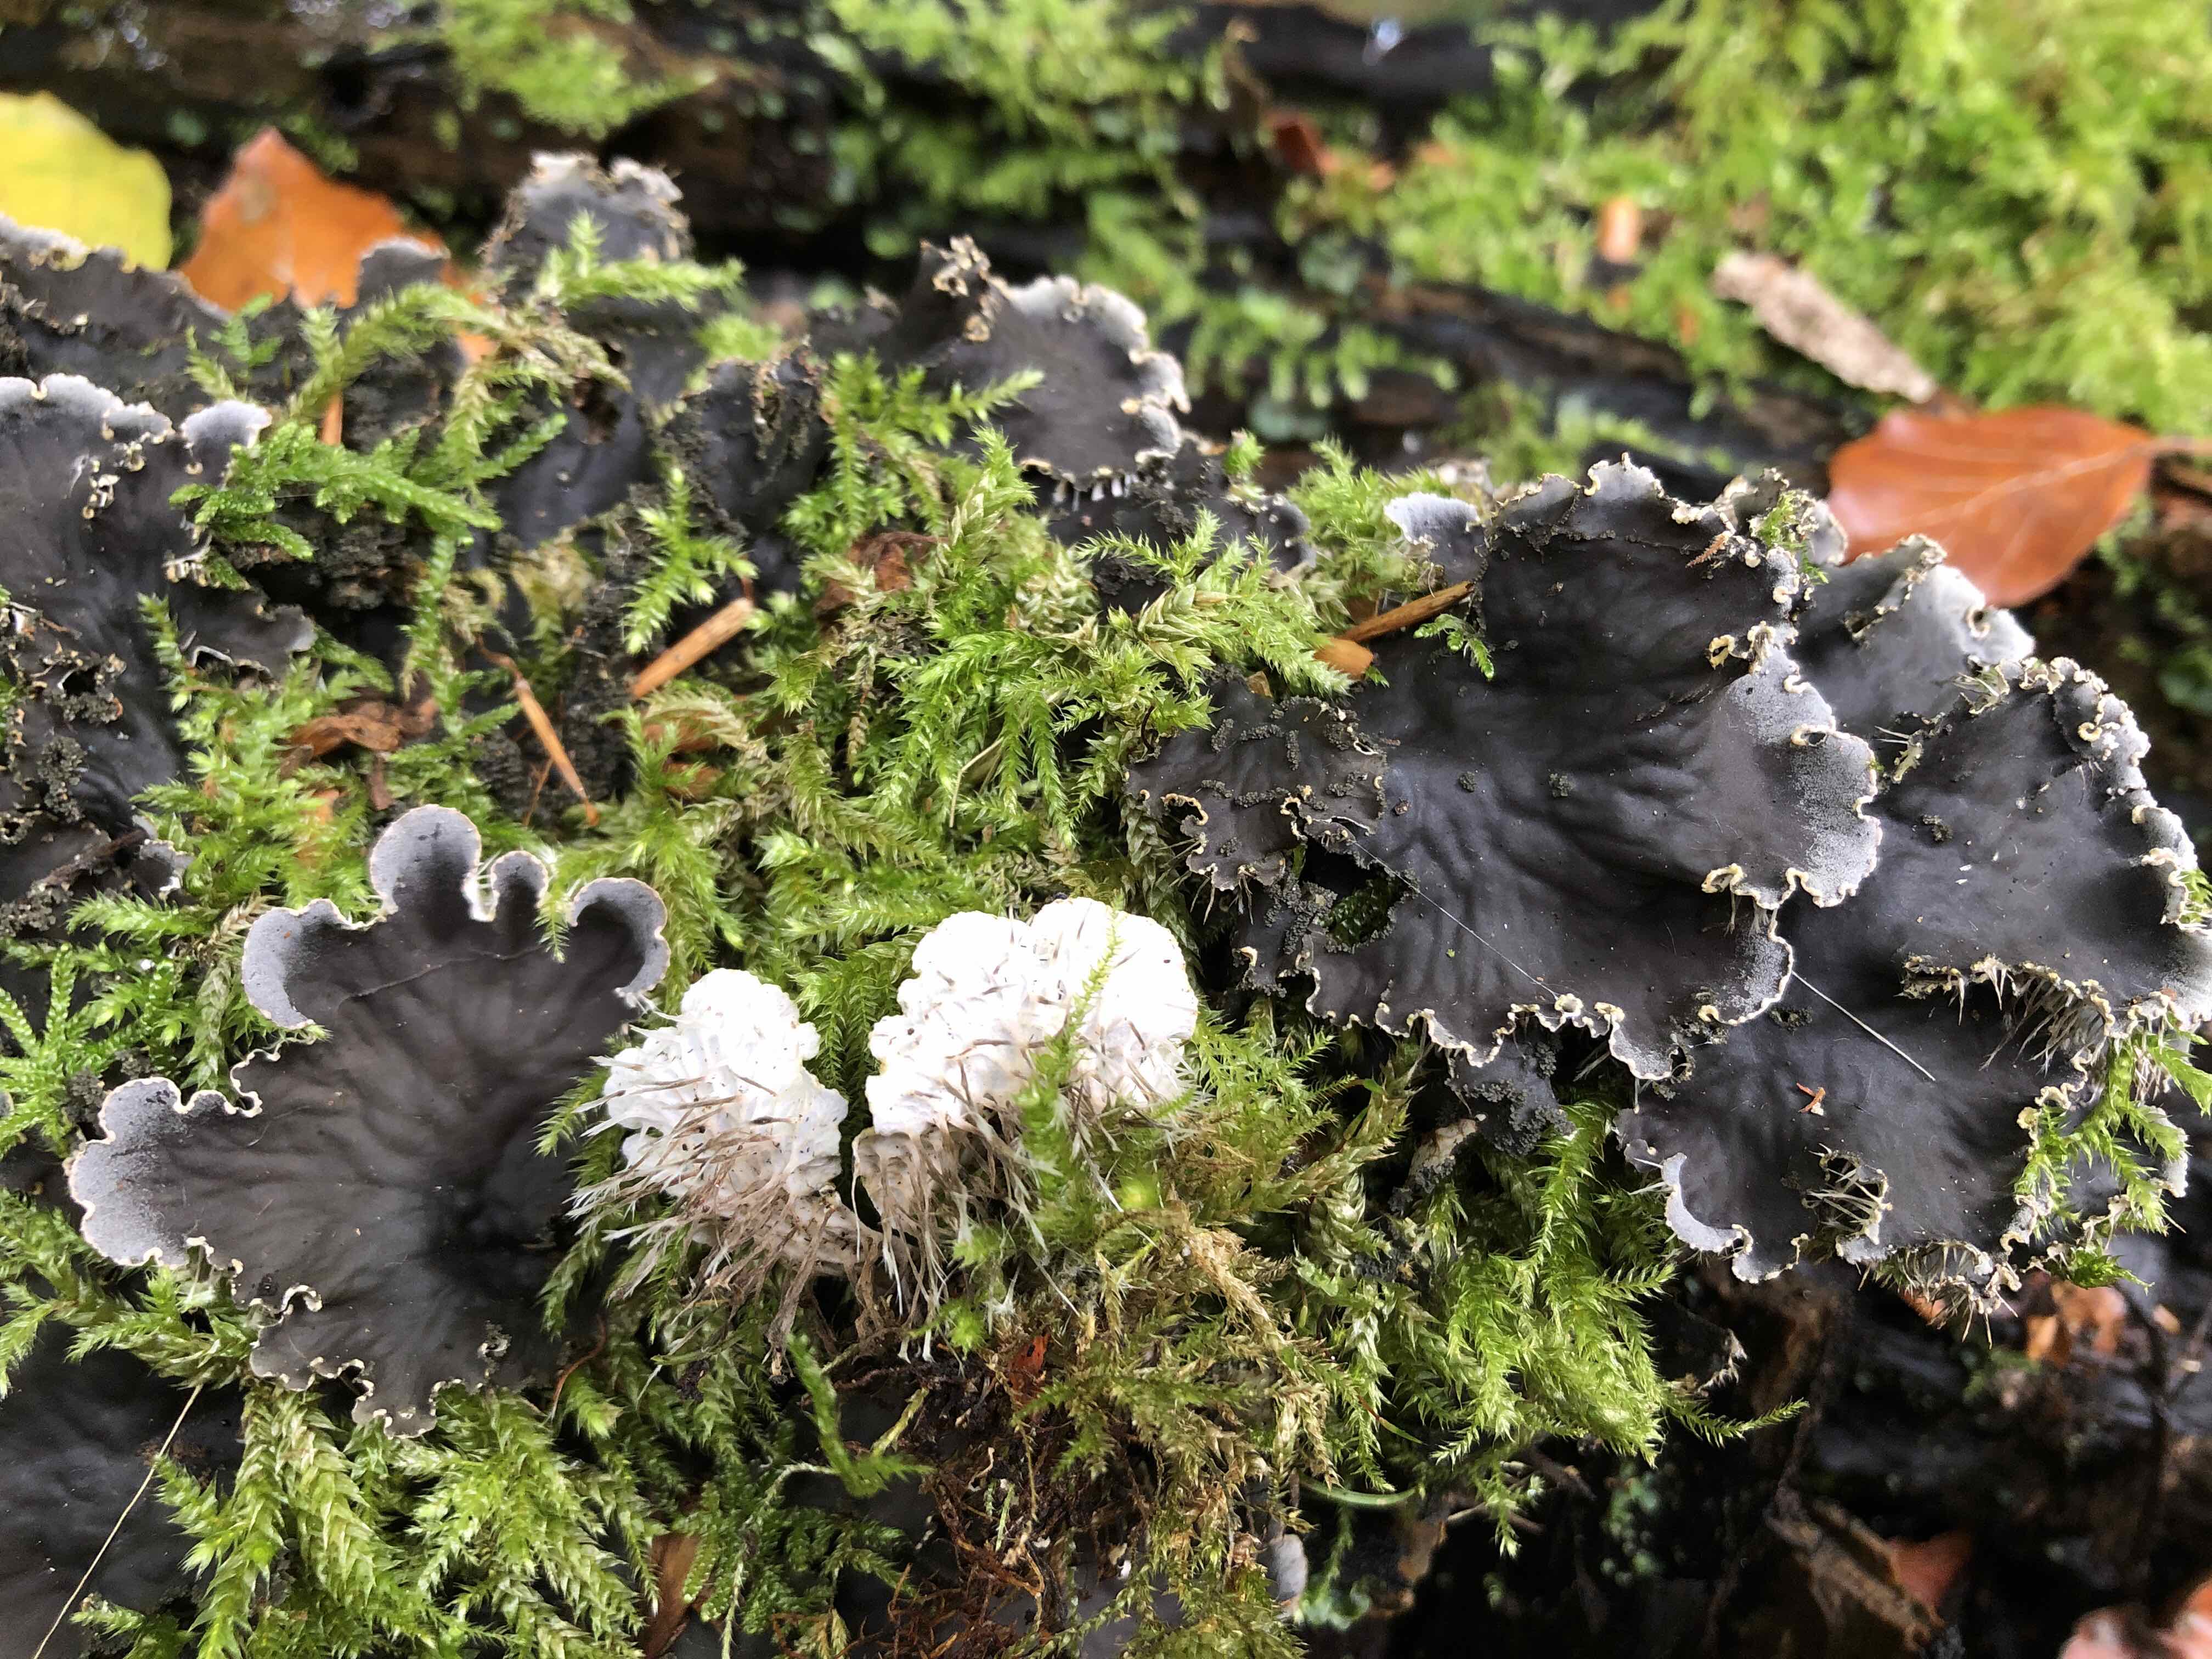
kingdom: Fungi
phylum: Ascomycota
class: Lecanoromycetes
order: Peltigerales
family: Peltigeraceae
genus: Peltigera
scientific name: Peltigera praetextata
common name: kruset skjoldlav
